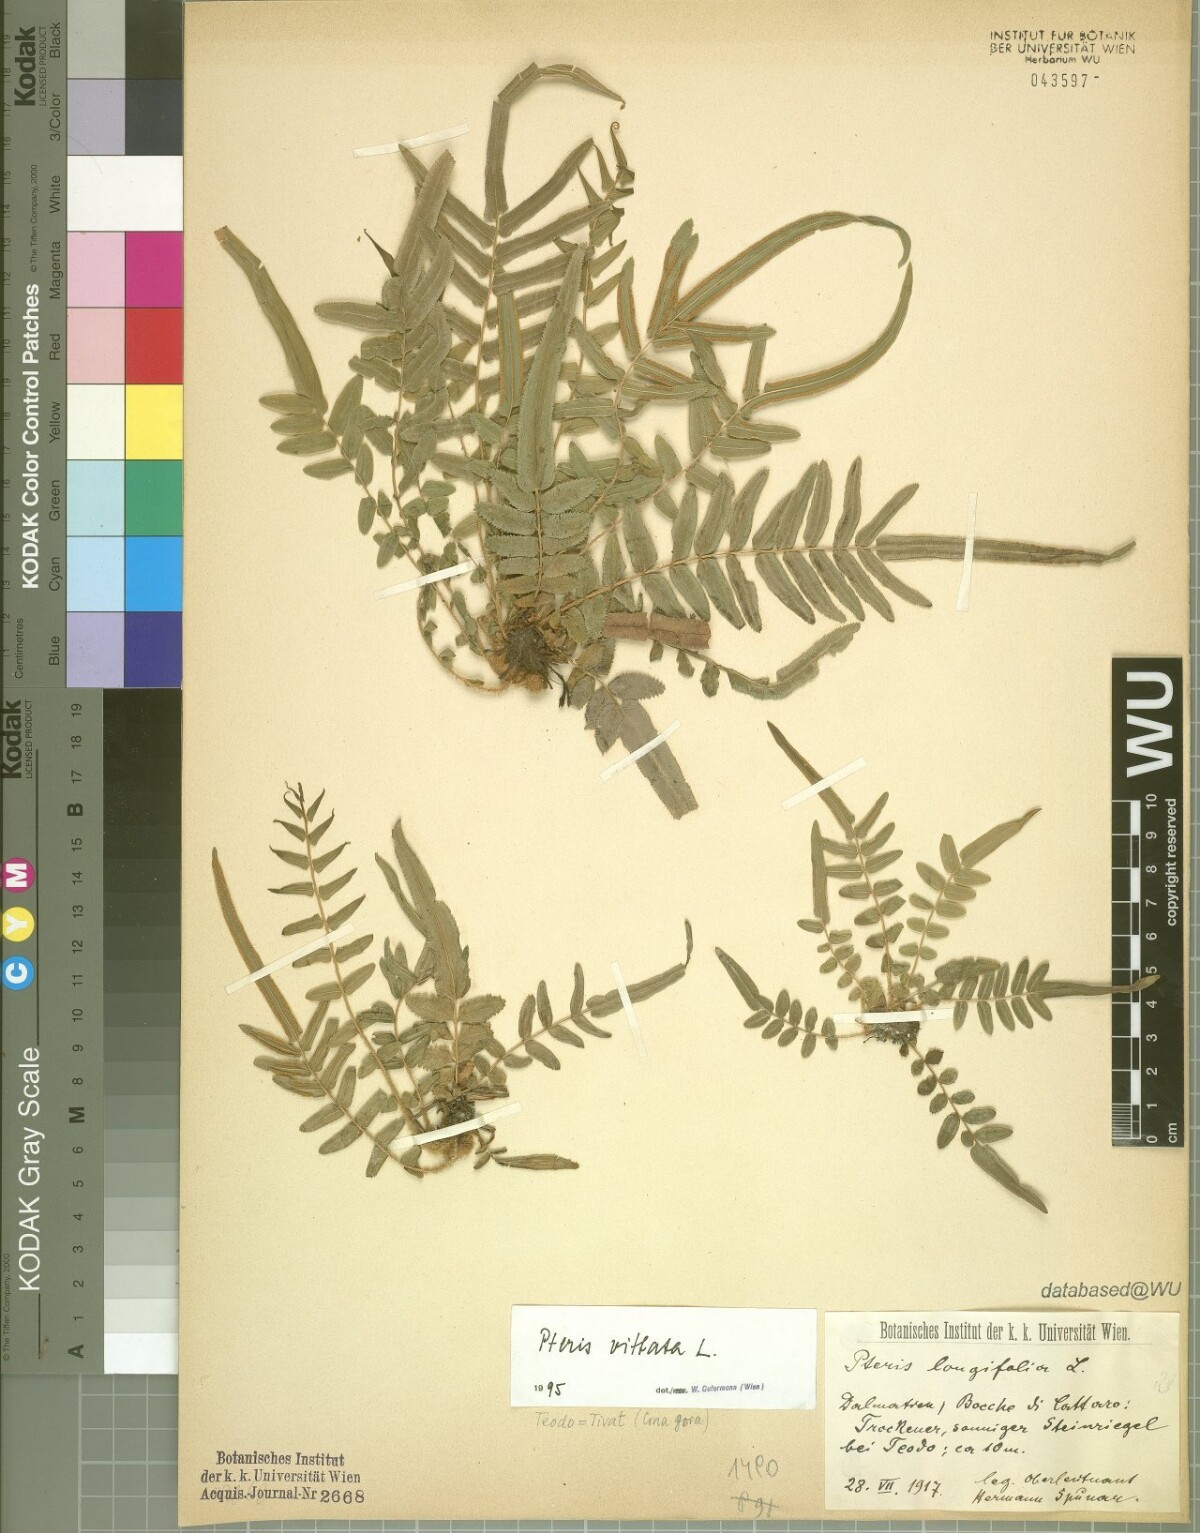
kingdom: Plantae
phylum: Tracheophyta
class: Polypodiopsida
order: Polypodiales
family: Pteridaceae
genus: Pteris
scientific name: Pteris vittata
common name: Ladder brake
